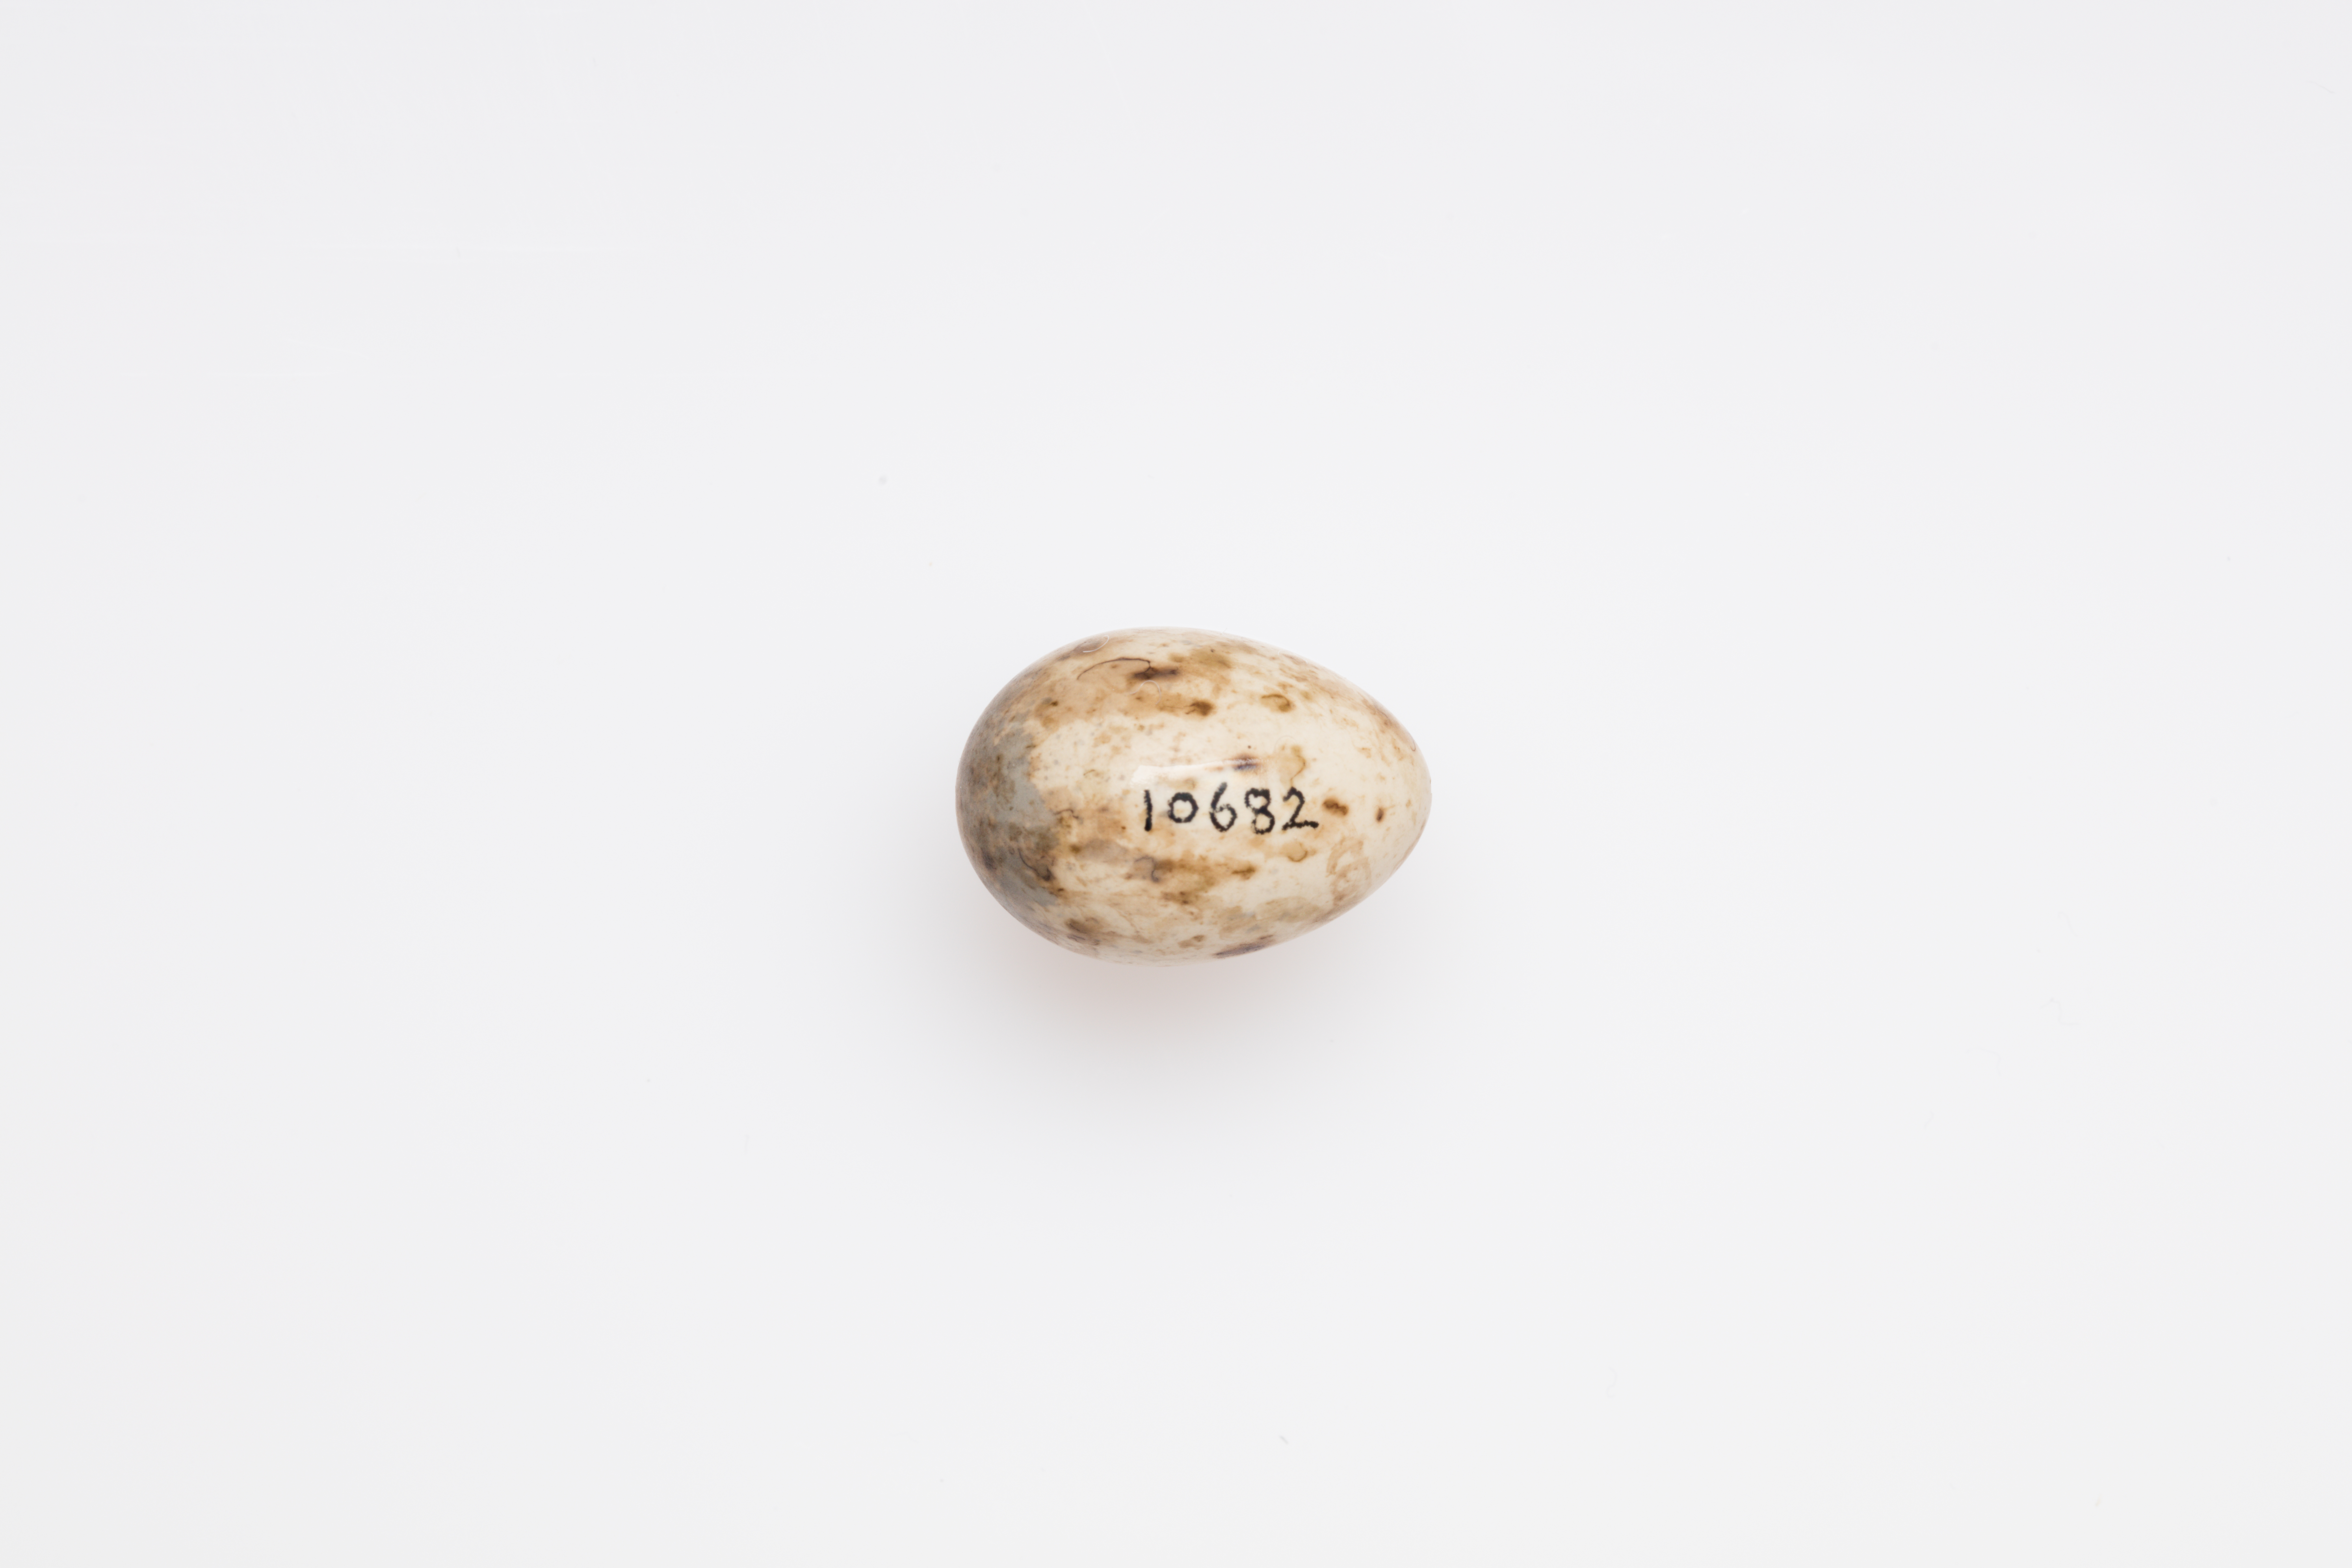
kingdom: Animalia
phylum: Chordata
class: Aves
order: Passeriformes
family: Sylviidae
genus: Sylvia
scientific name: Sylvia borin
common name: Garden warbler
